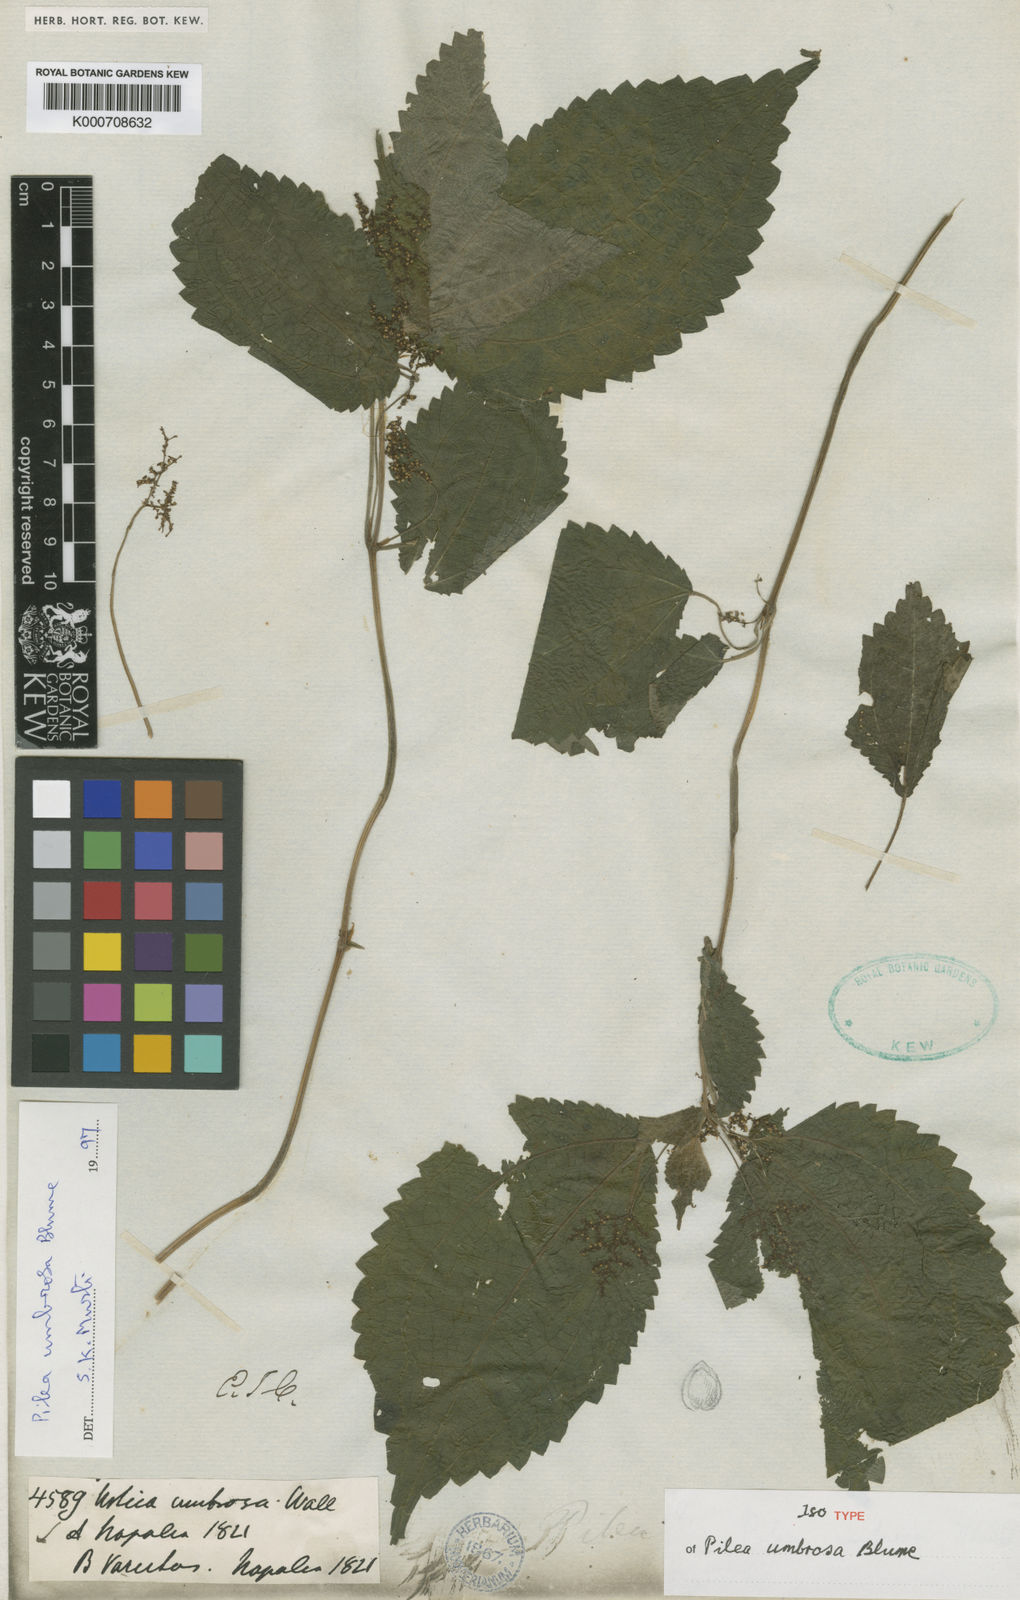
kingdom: Plantae
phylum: Tracheophyta
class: Magnoliopsida
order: Rosales
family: Urticaceae
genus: Pilea
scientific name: Pilea
